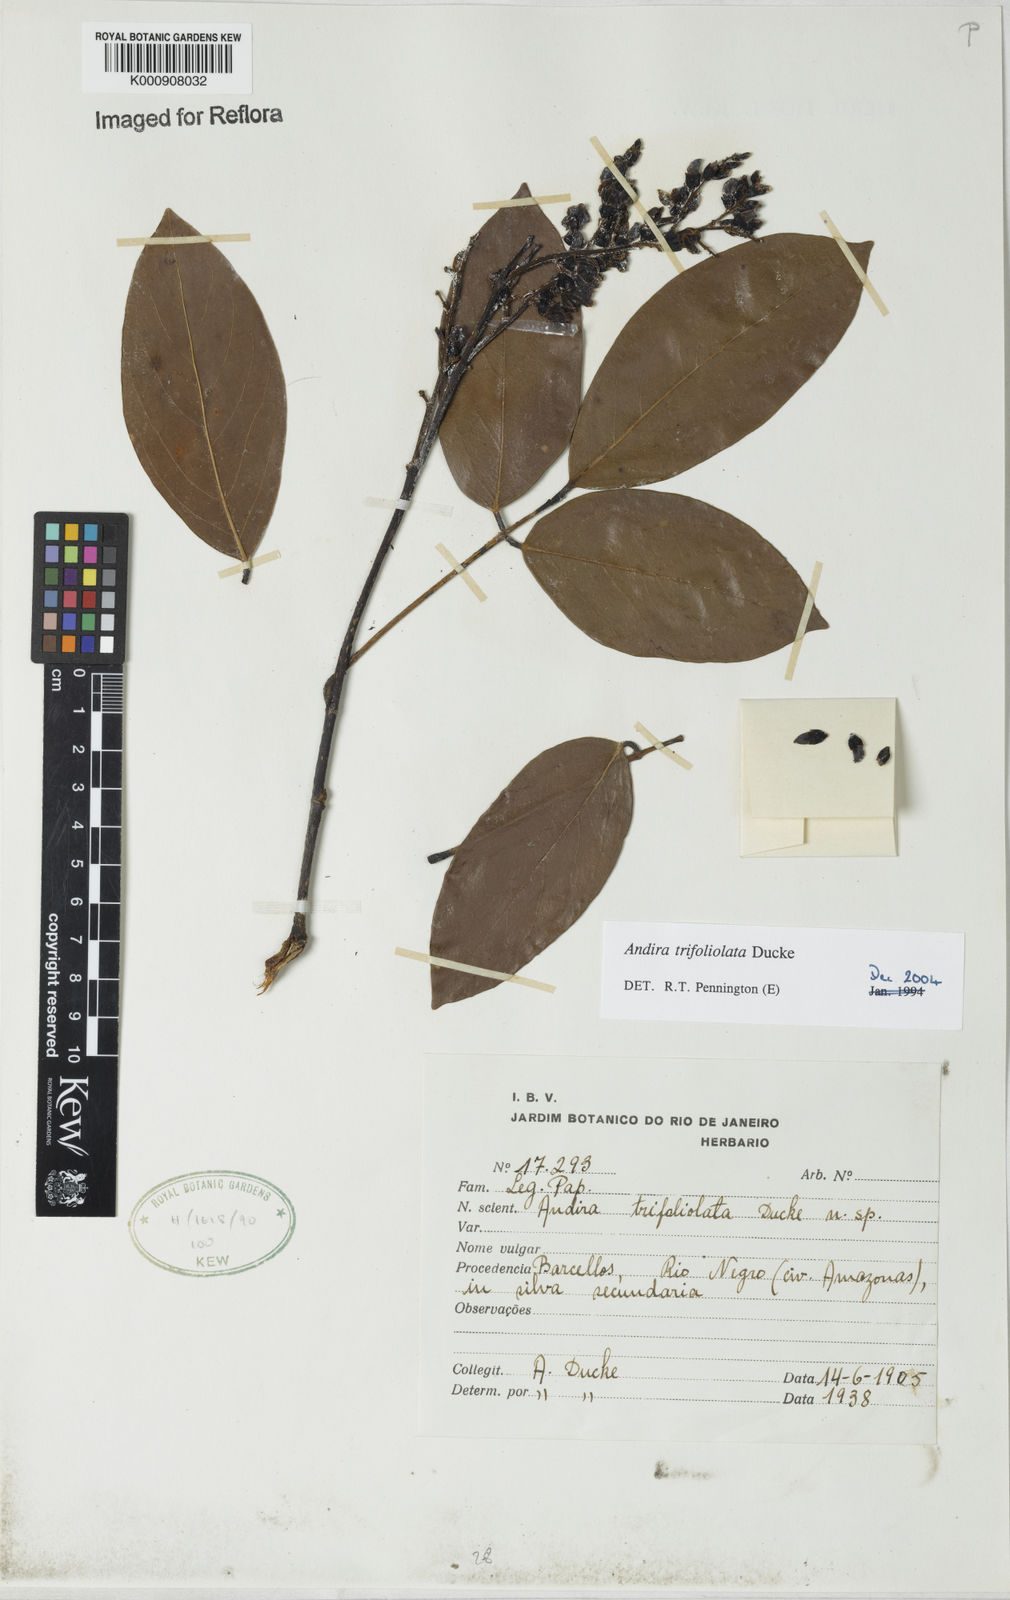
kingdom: Plantae
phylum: Tracheophyta
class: Magnoliopsida
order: Fabales
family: Fabaceae
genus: Andira
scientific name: Andira trifoliolata
